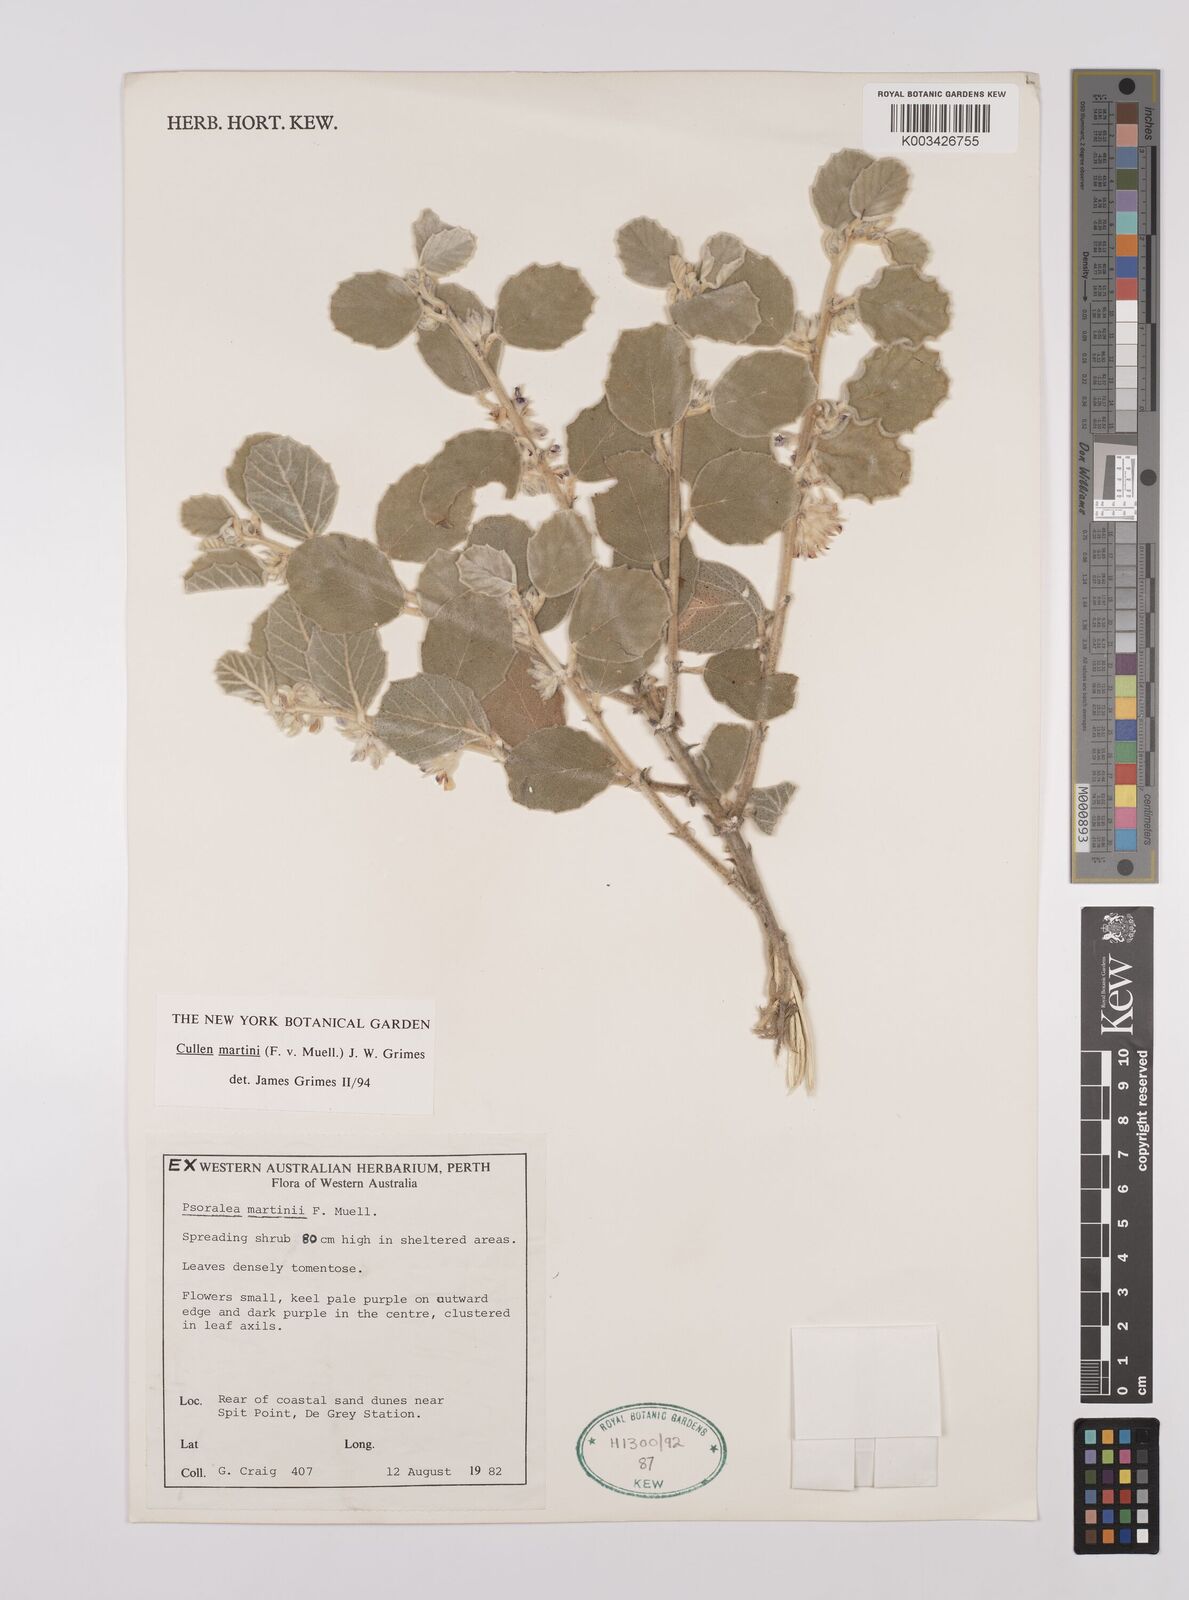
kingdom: Plantae
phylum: Tracheophyta
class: Magnoliopsida
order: Fabales
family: Fabaceae
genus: Cullen
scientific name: Cullen martini
